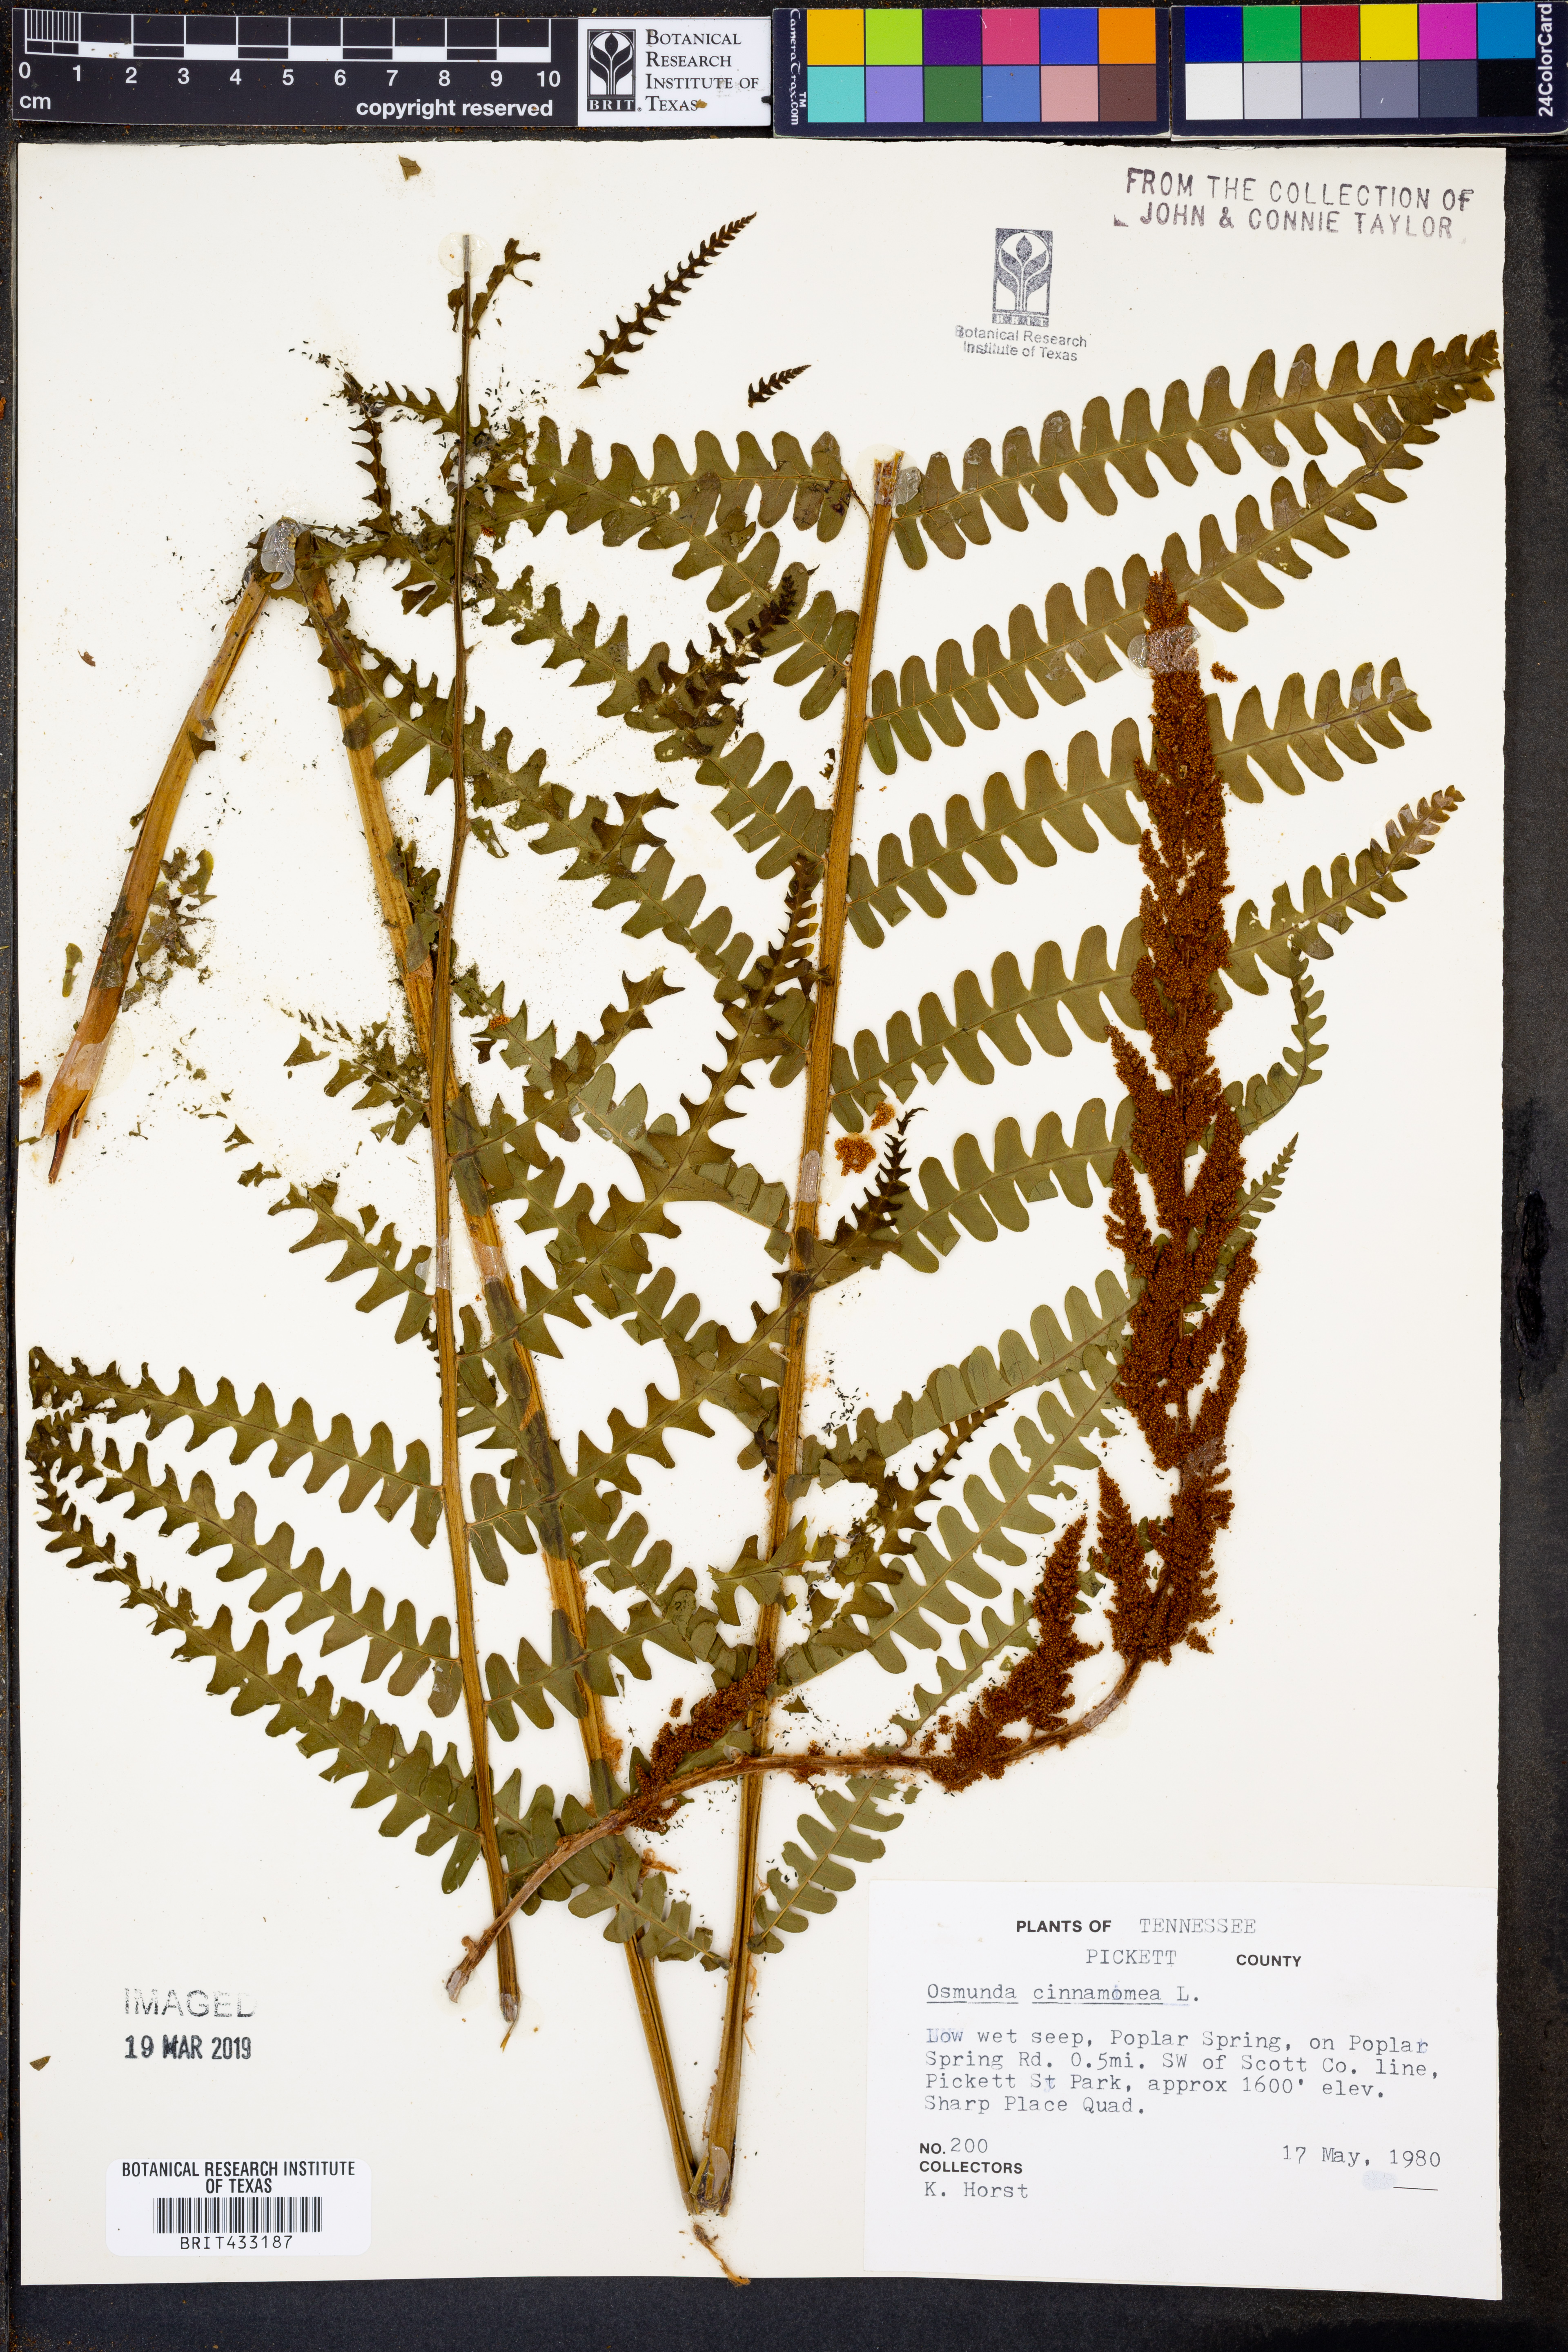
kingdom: Plantae
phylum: Tracheophyta
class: Polypodiopsida
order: Osmundales
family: Osmundaceae
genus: Osmundastrum
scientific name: Osmundastrum cinnamomeum
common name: Cinnamon fern
